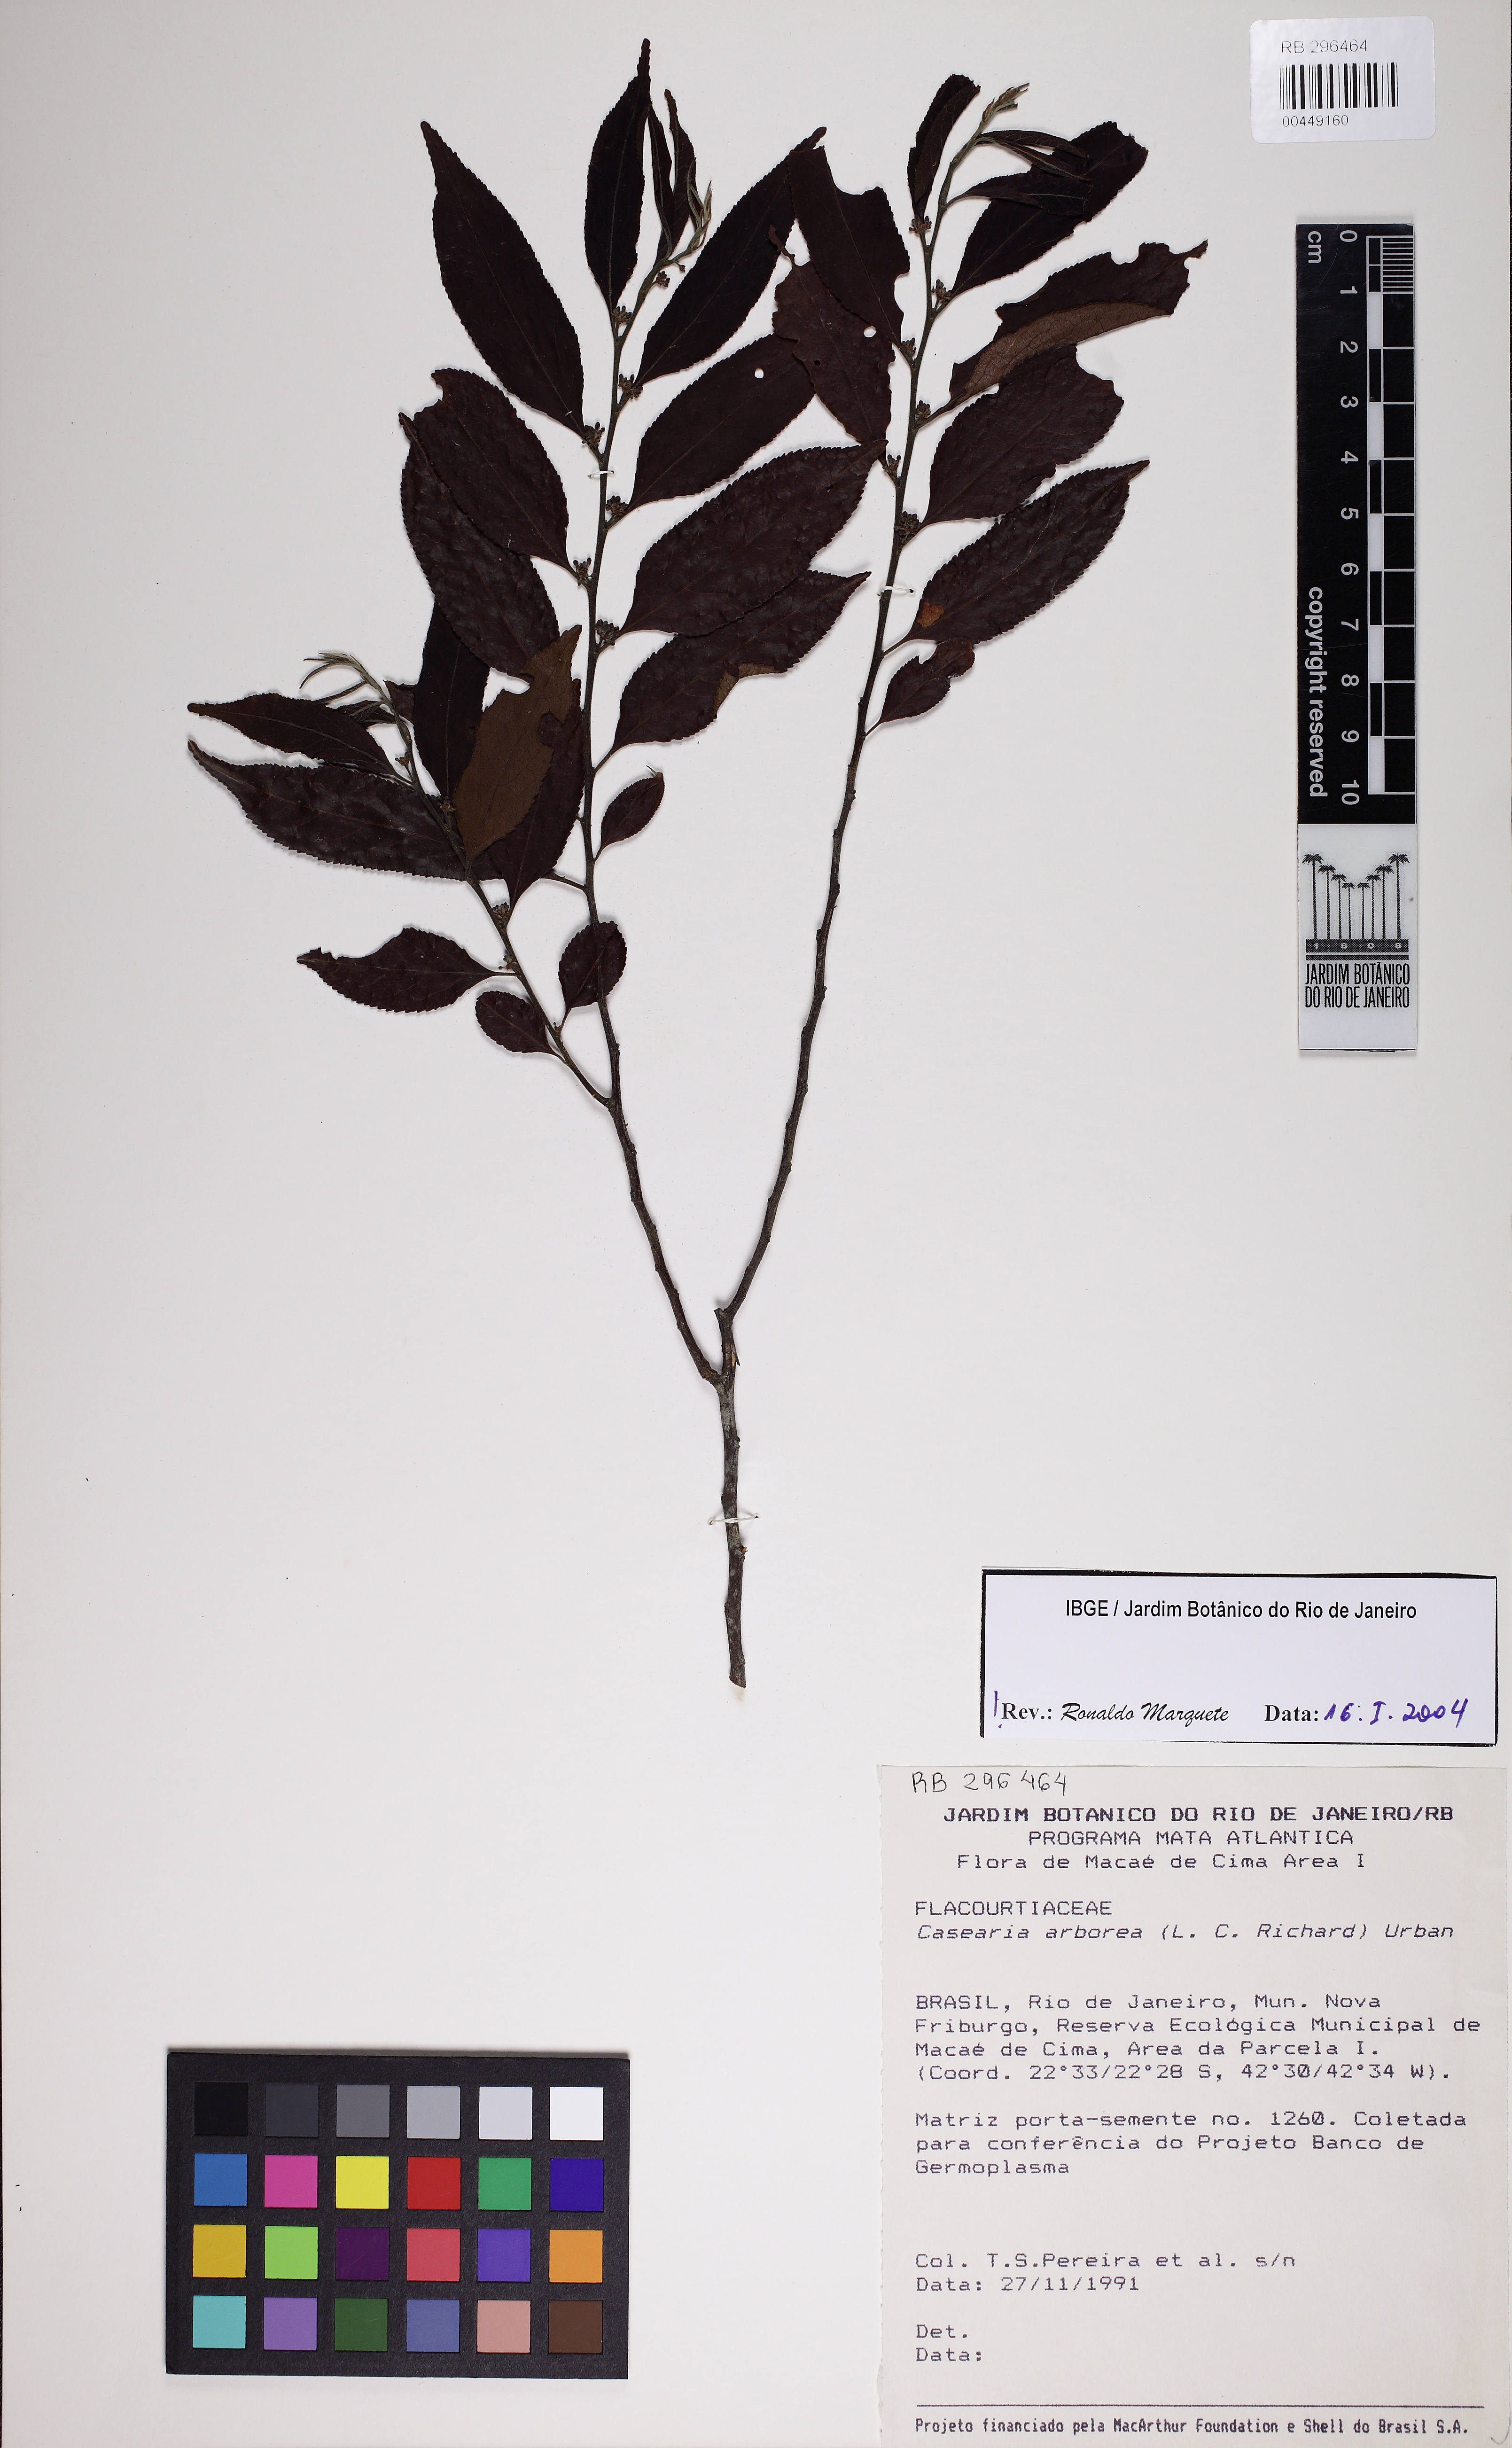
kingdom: Plantae
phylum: Tracheophyta
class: Magnoliopsida
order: Malpighiales
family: Salicaceae
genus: Casearia
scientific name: Casearia arborea
